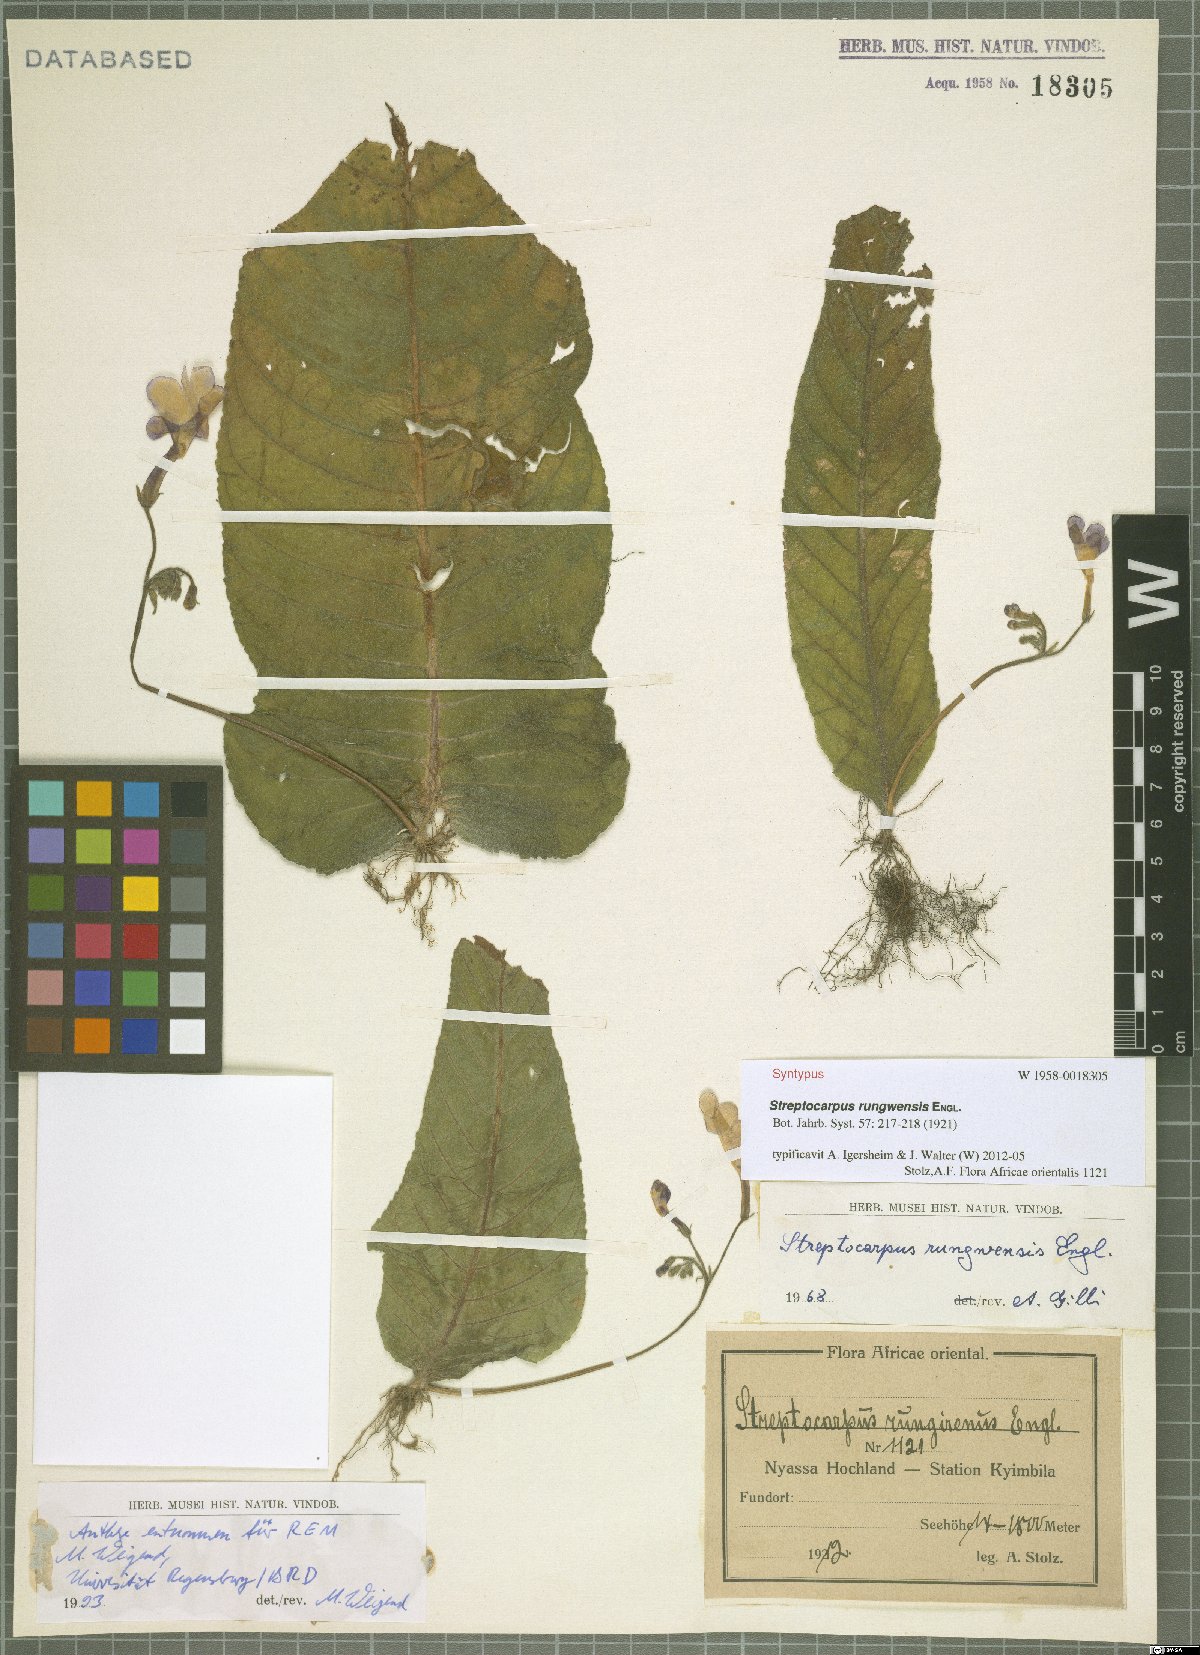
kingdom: Plantae
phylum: Tracheophyta
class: Magnoliopsida
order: Lamiales
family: Gesneriaceae
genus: Streptocarpus
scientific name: Streptocarpus goetzei
